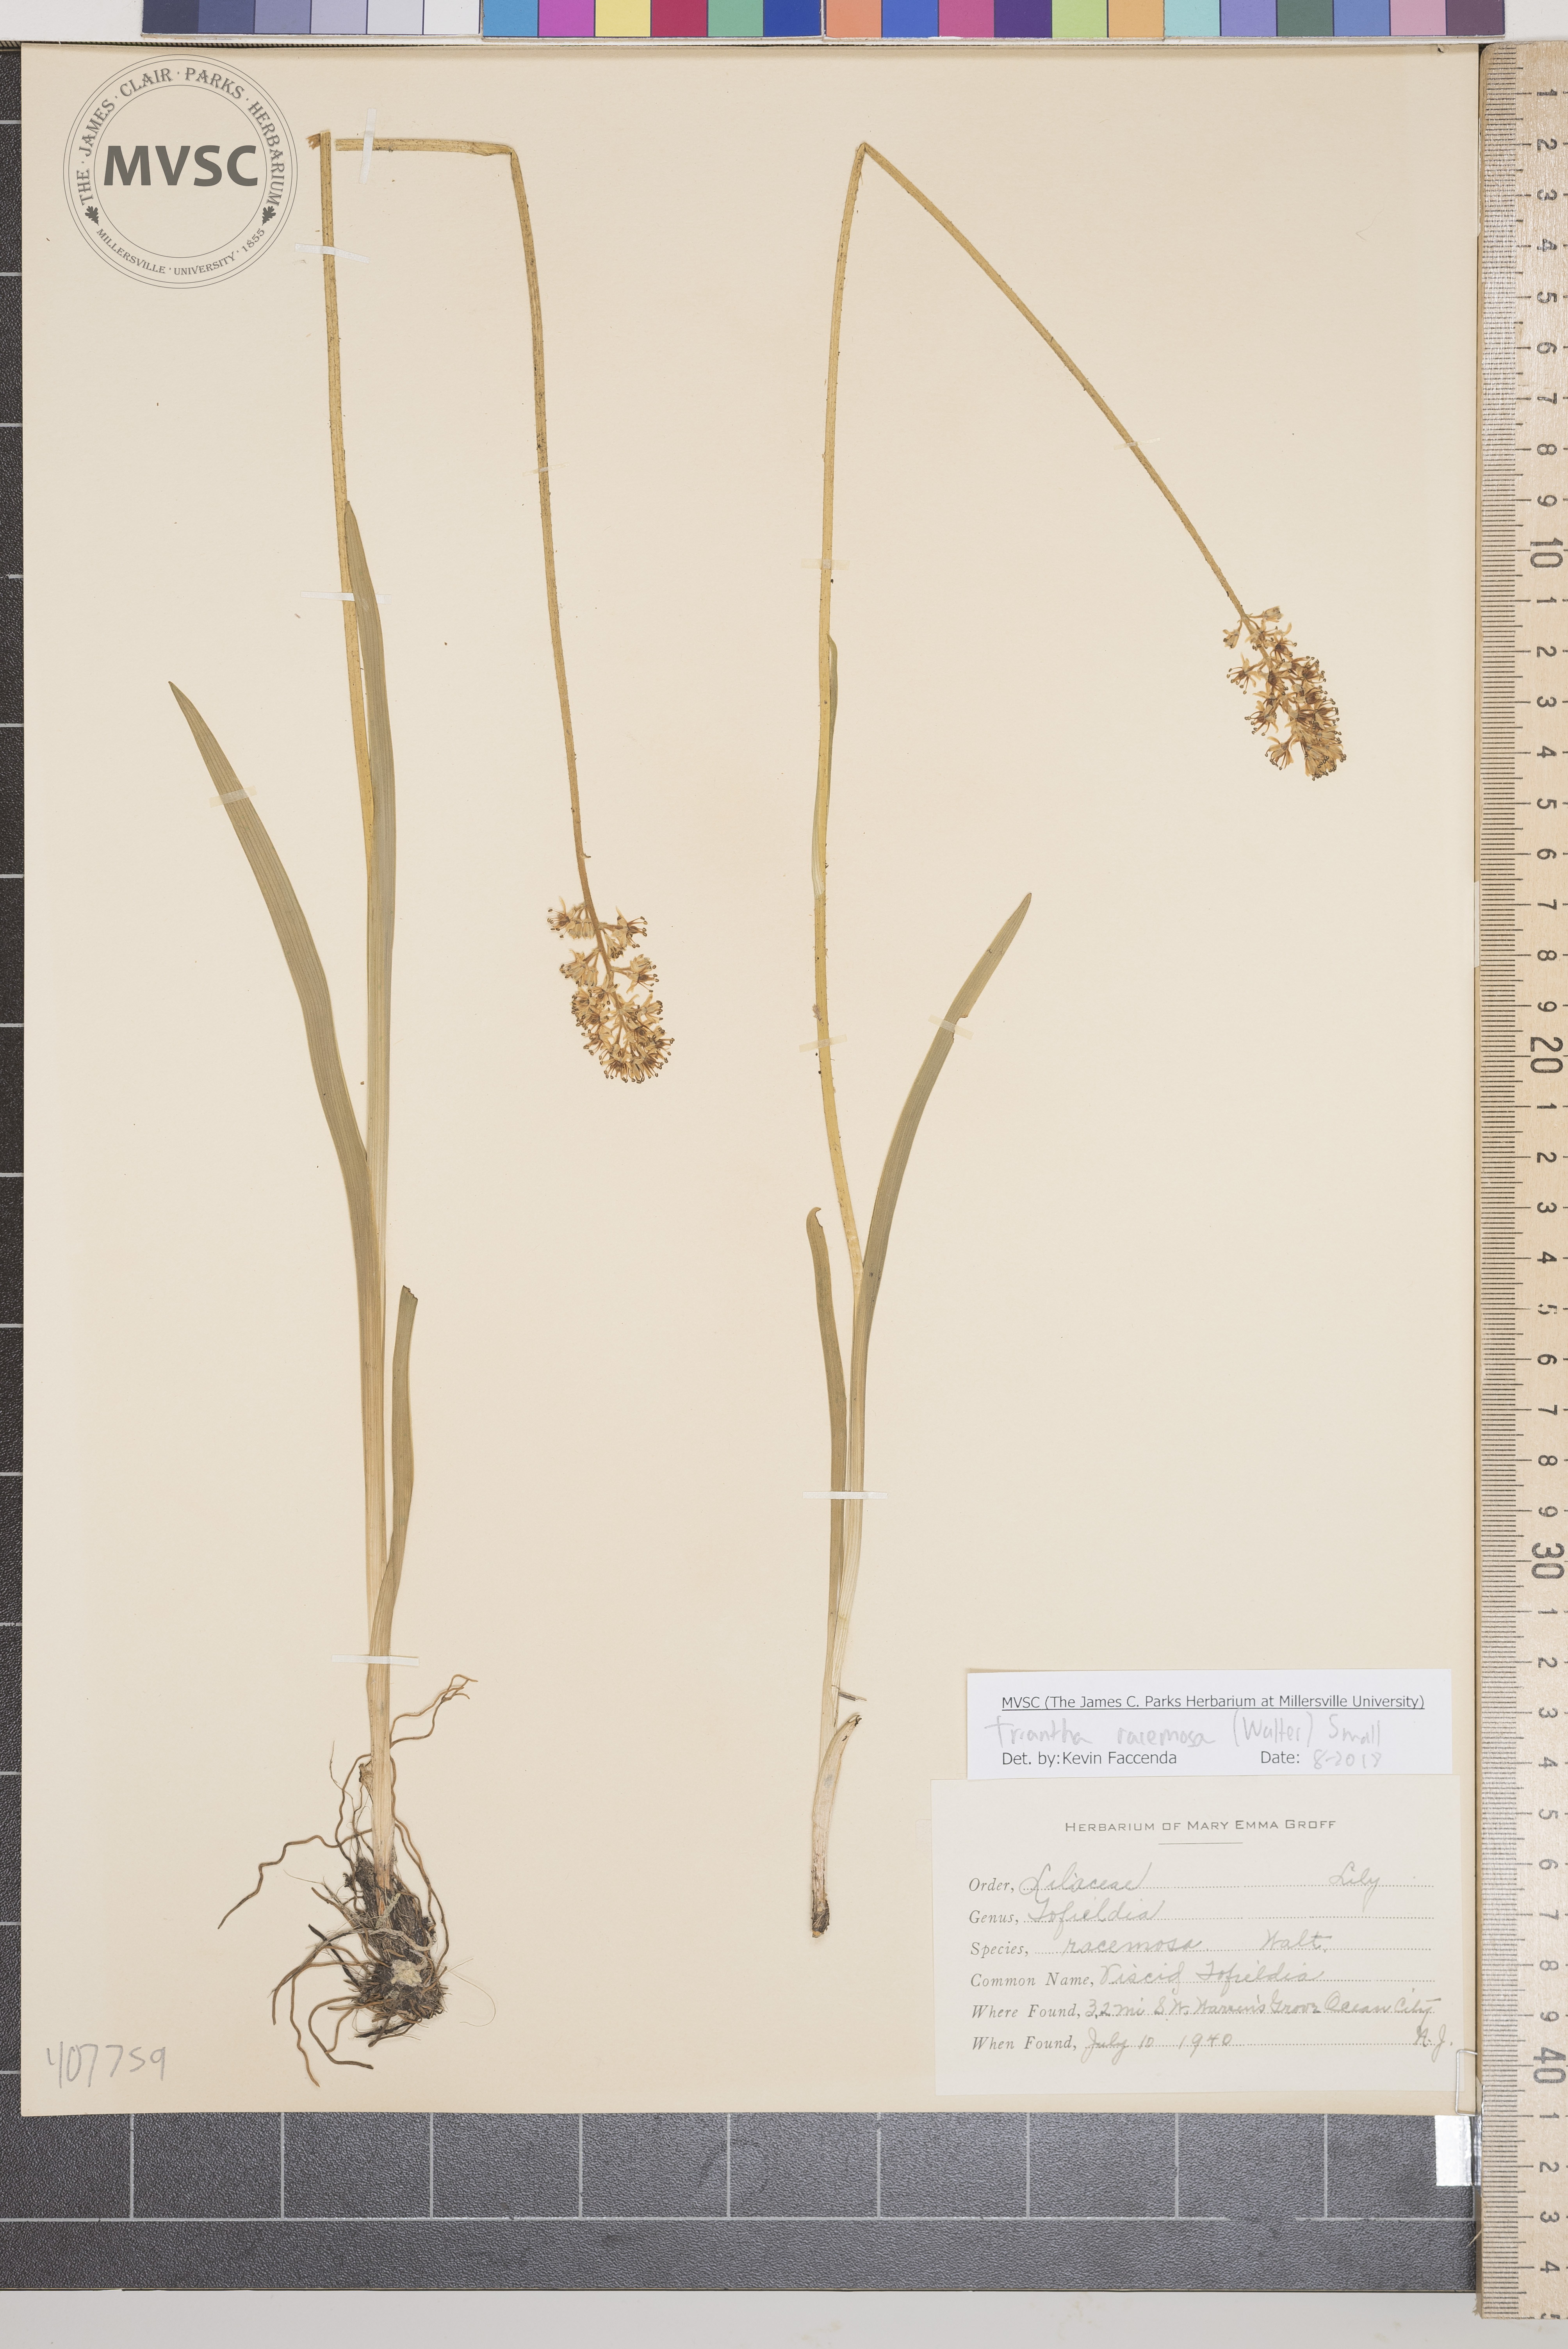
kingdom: Plantae
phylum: Tracheophyta
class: Liliopsida
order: Alismatales
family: Tofieldiaceae
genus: Triantha
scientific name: Triantha racemosa
